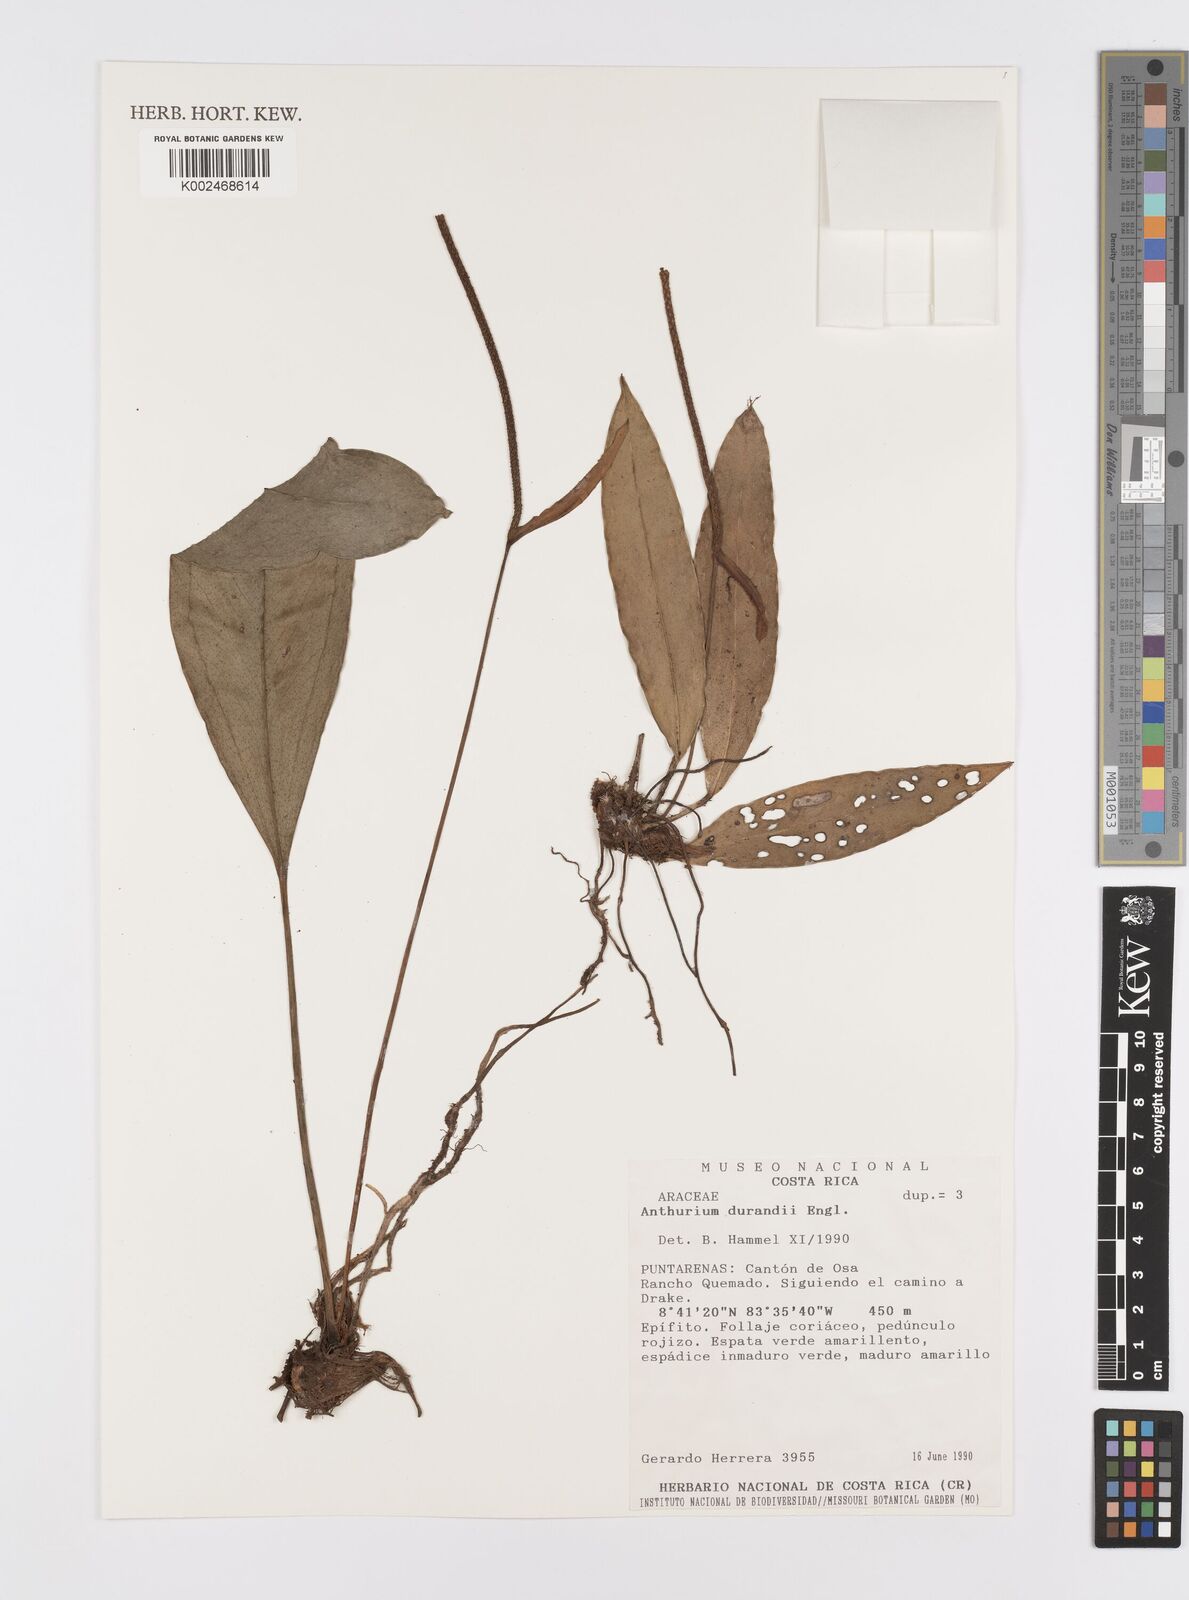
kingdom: Plantae
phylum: Tracheophyta
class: Liliopsida
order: Alismatales
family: Araceae
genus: Anthurium
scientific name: Anthurium durandii
